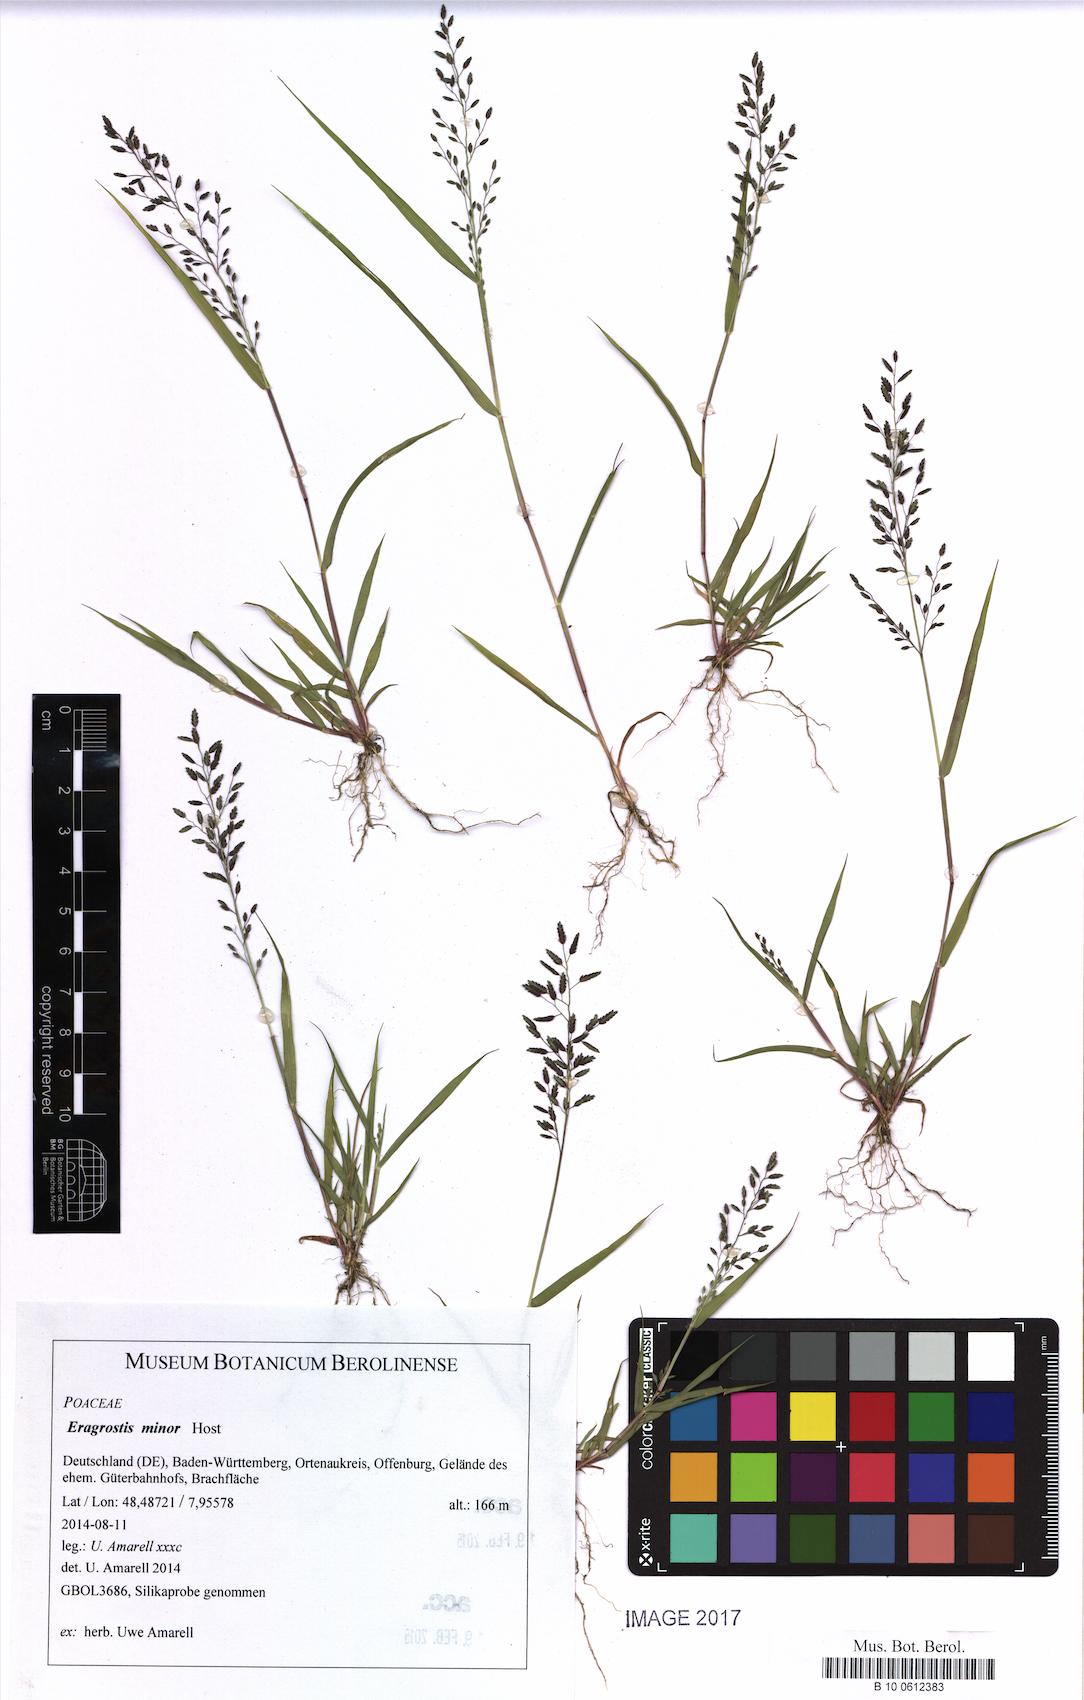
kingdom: Plantae
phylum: Tracheophyta
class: Liliopsida
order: Poales
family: Poaceae
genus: Eragrostis
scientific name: Eragrostis minor
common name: Small love-grass
